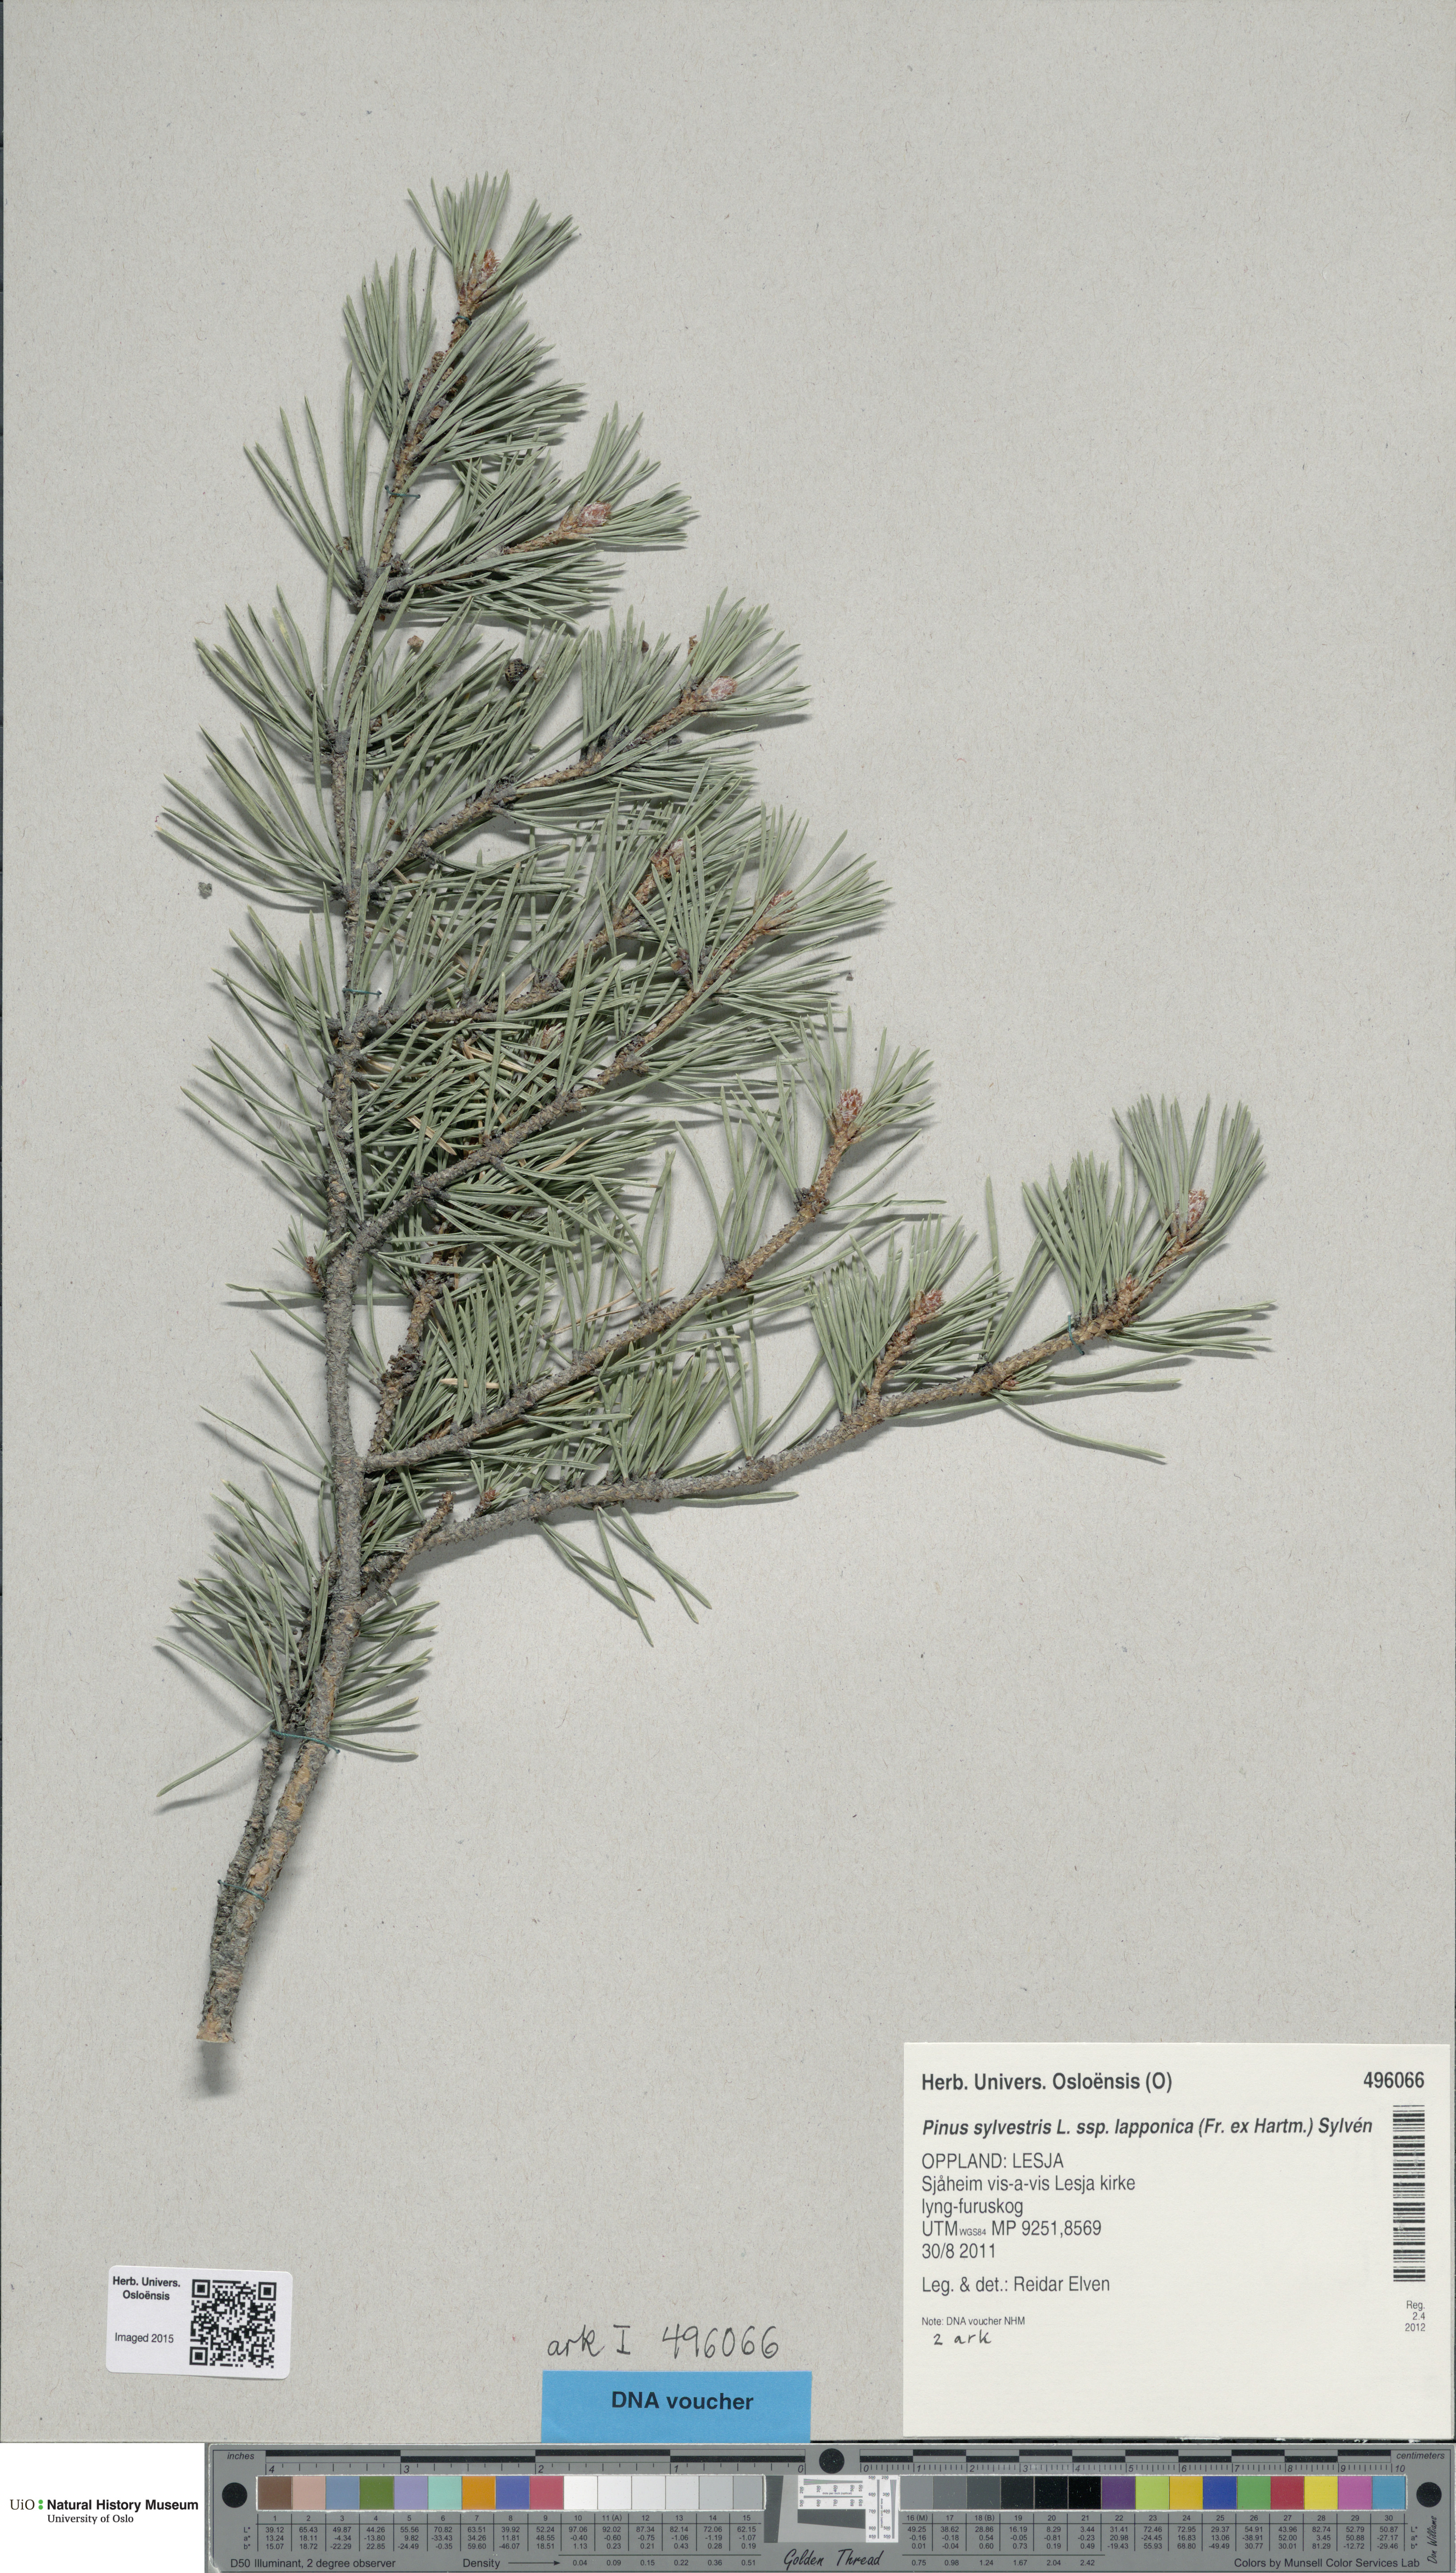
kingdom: Plantae
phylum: Tracheophyta
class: Pinopsida
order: Pinales
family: Pinaceae
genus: Pinus
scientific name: Pinus sylvestris
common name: Scots pine
